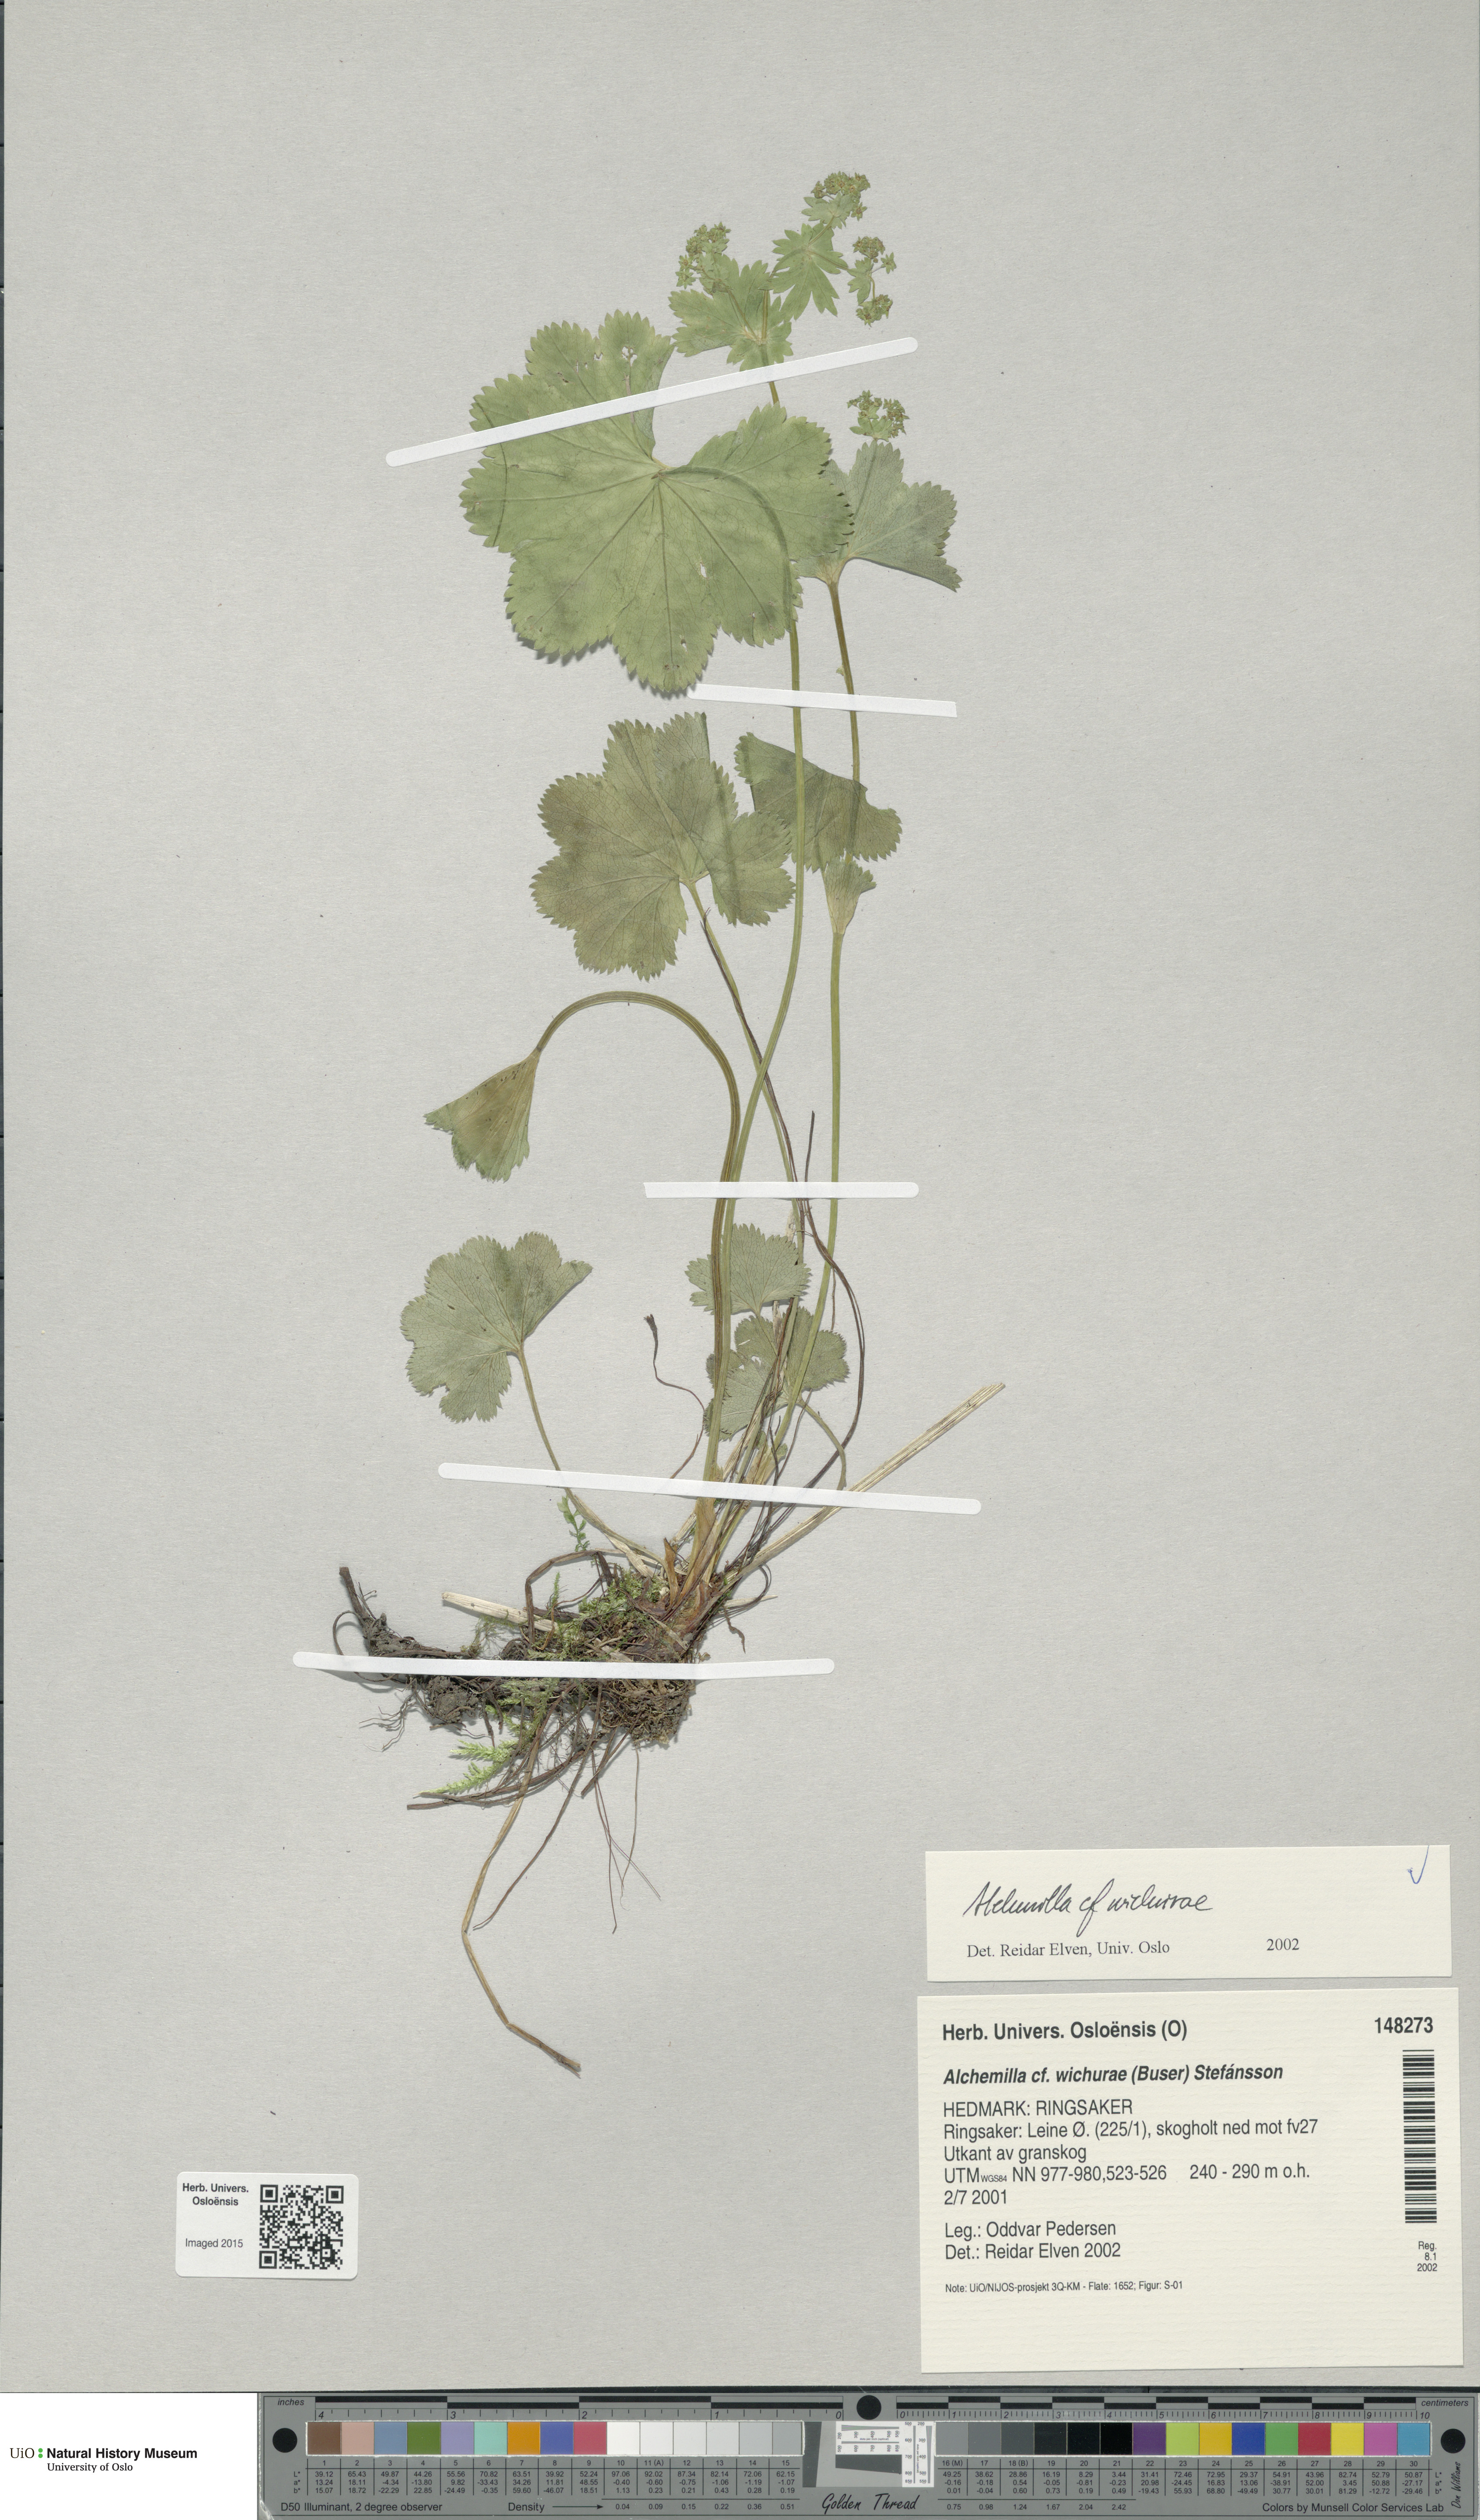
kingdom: Plantae
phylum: Tracheophyta
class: Magnoliopsida
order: Rosales
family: Rosaceae
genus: Alchemilla
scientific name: Alchemilla wichurae
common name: Rock lady's mantle
